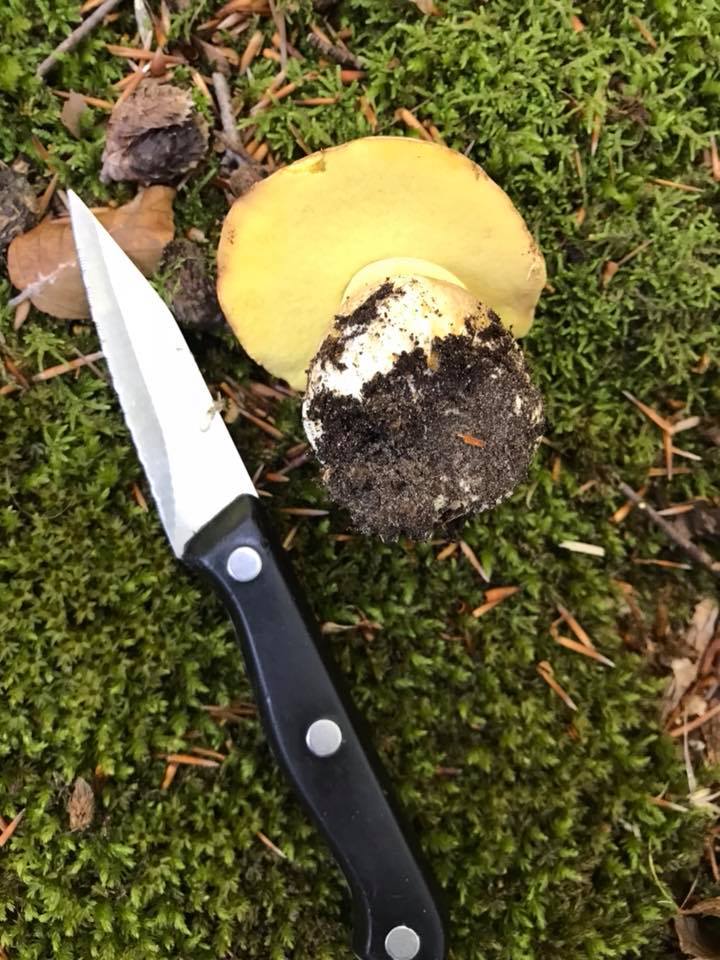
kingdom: Fungi
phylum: Basidiomycota
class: Agaricomycetes
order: Boletales
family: Boletaceae
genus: Butyriboletus
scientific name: Butyriboletus appendiculatus
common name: tenstokket rørhat
